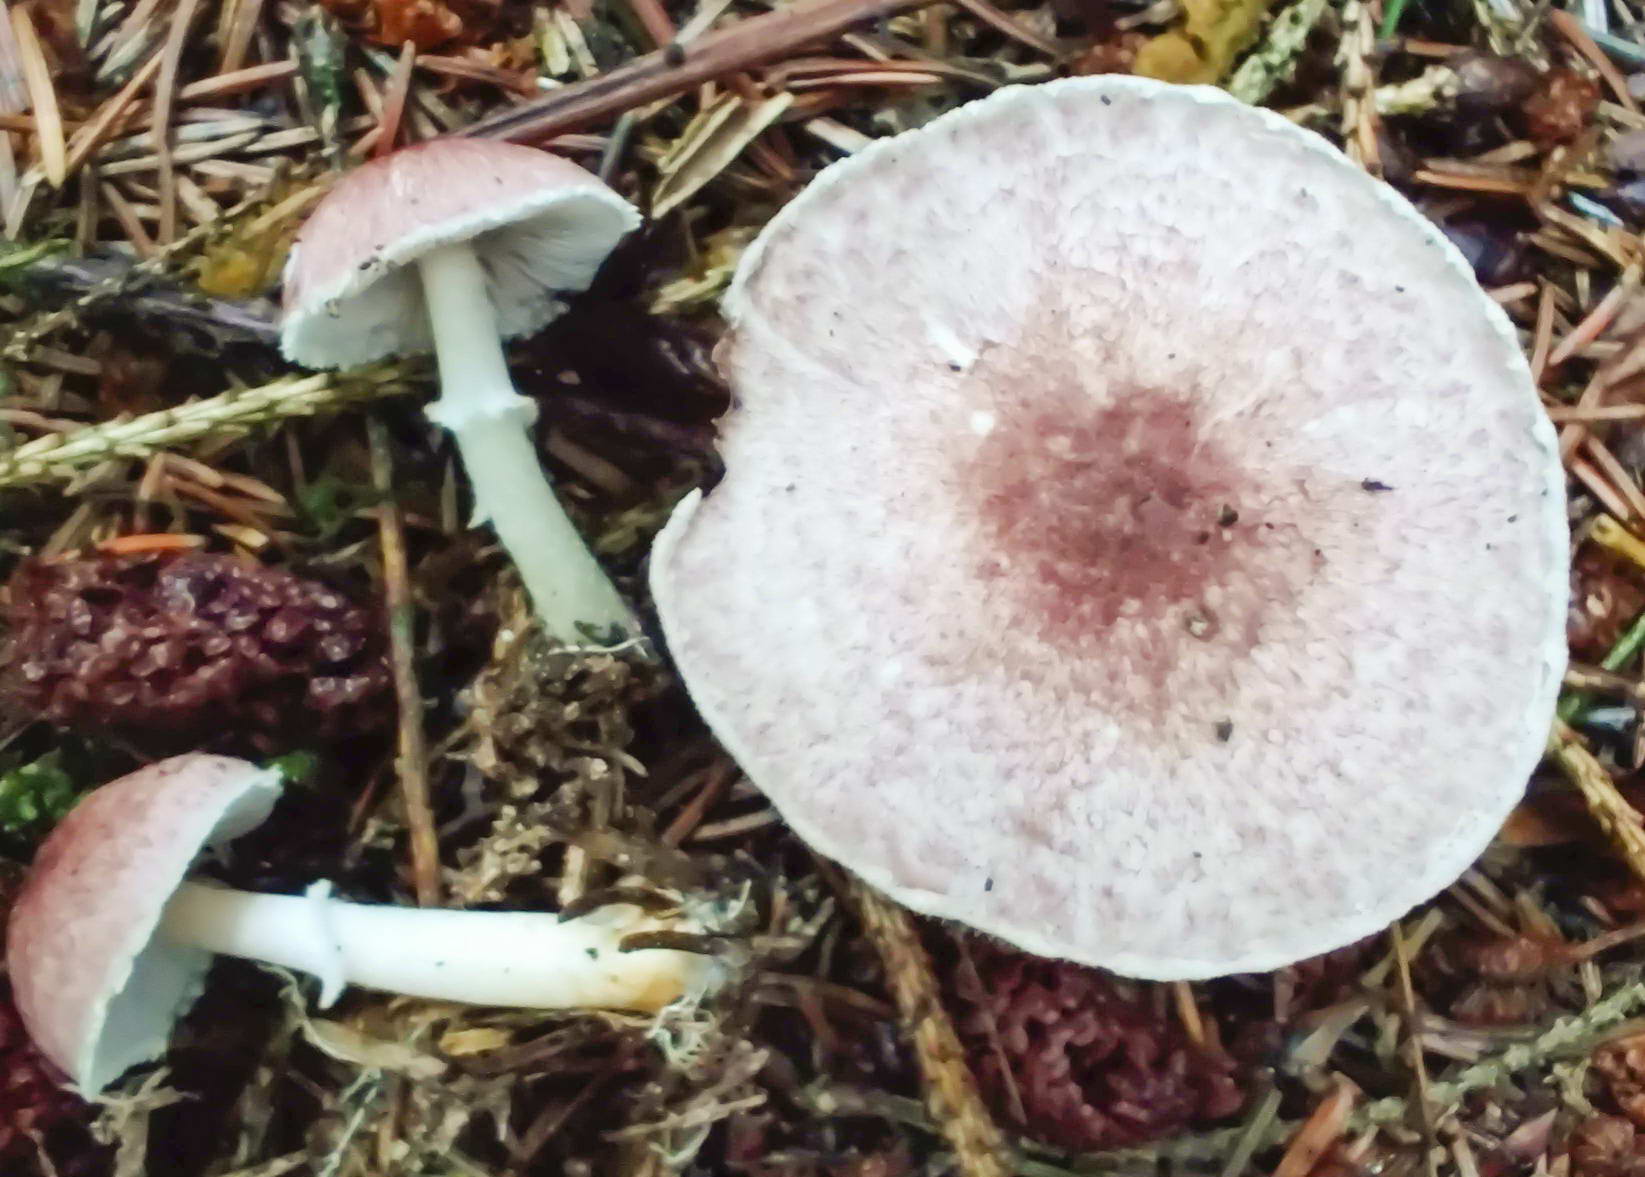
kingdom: Fungi
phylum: Basidiomycota
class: Agaricomycetes
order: Agaricales
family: Agaricaceae
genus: Agaricus
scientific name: Agaricus dulcidulus
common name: blegrød champignon
